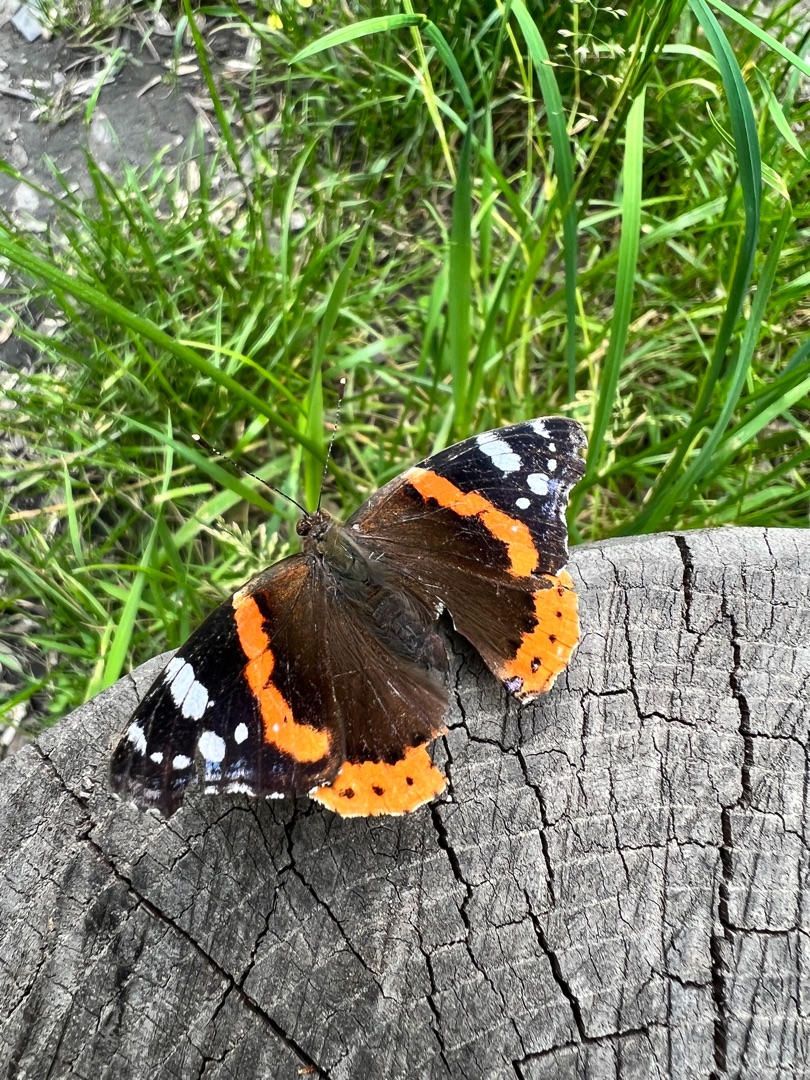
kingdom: Animalia
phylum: Arthropoda
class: Insecta
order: Lepidoptera
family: Nymphalidae
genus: Vanessa
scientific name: Vanessa atalanta
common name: Admiral
